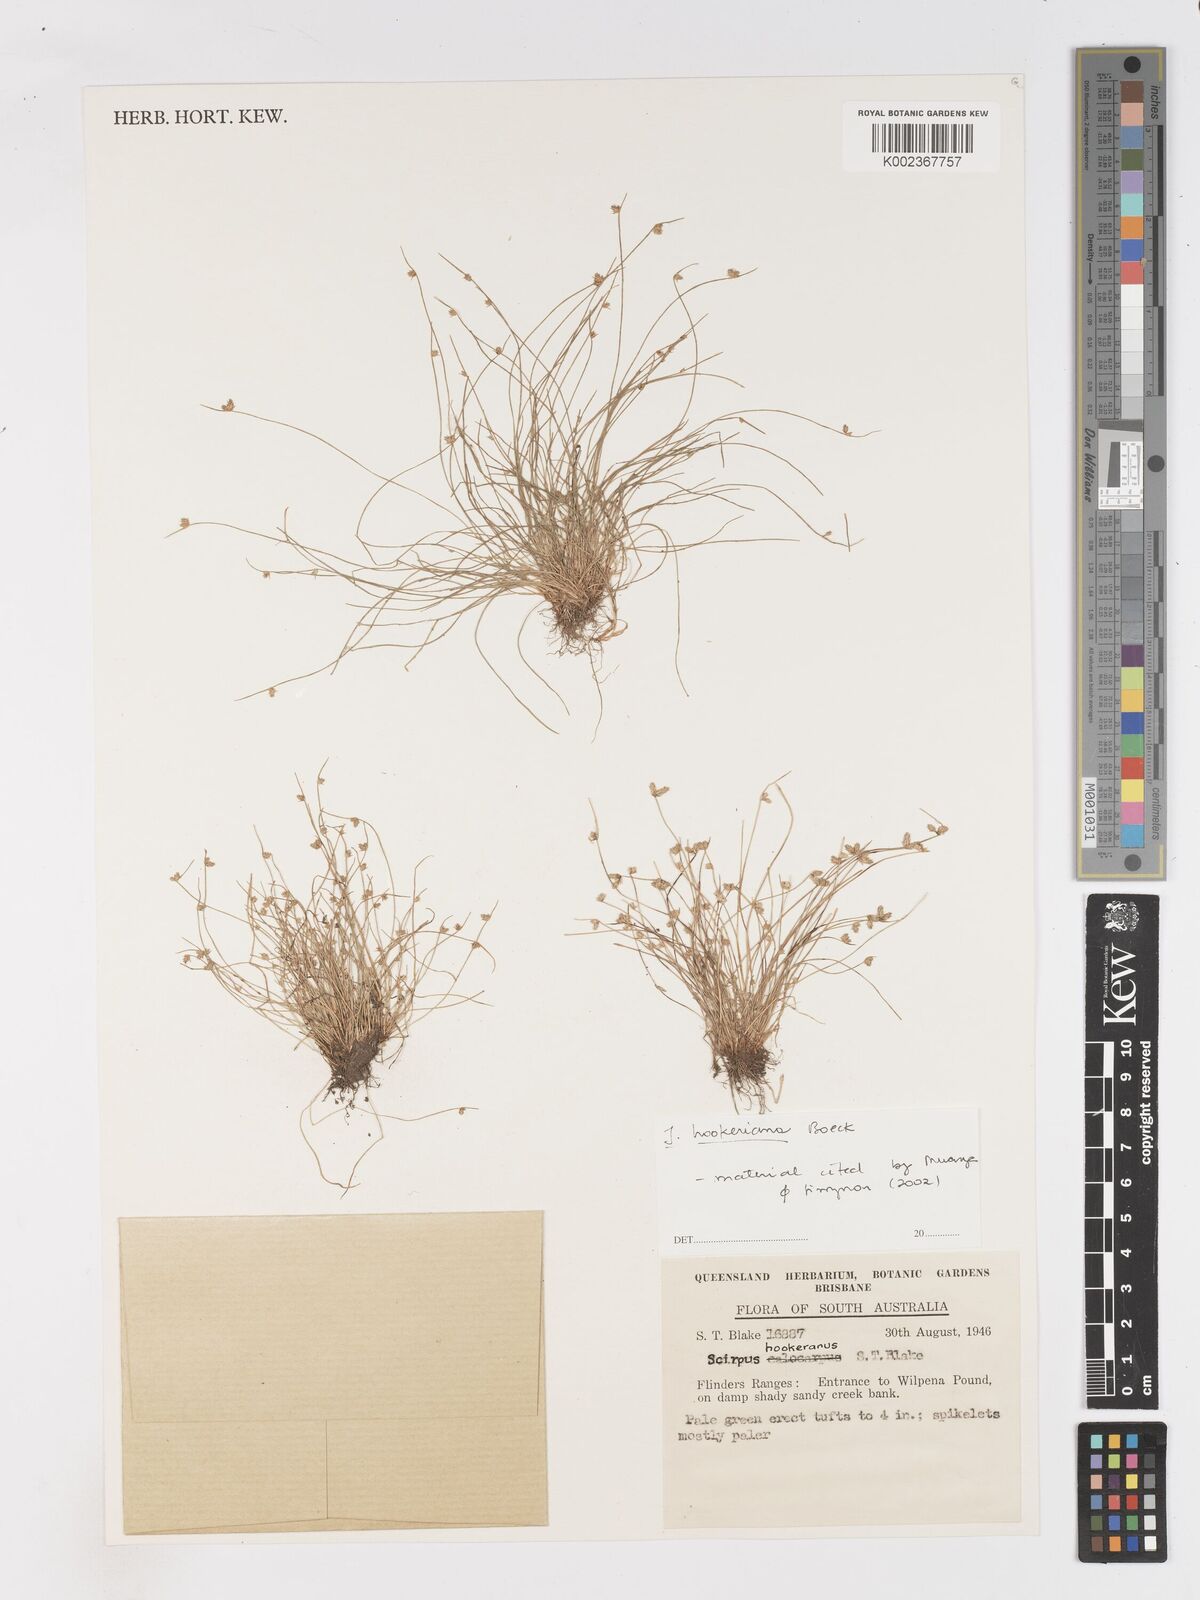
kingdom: Plantae
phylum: Tracheophyta
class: Liliopsida
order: Poales
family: Cyperaceae
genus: Isolepis
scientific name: Isolepis multicaulis
